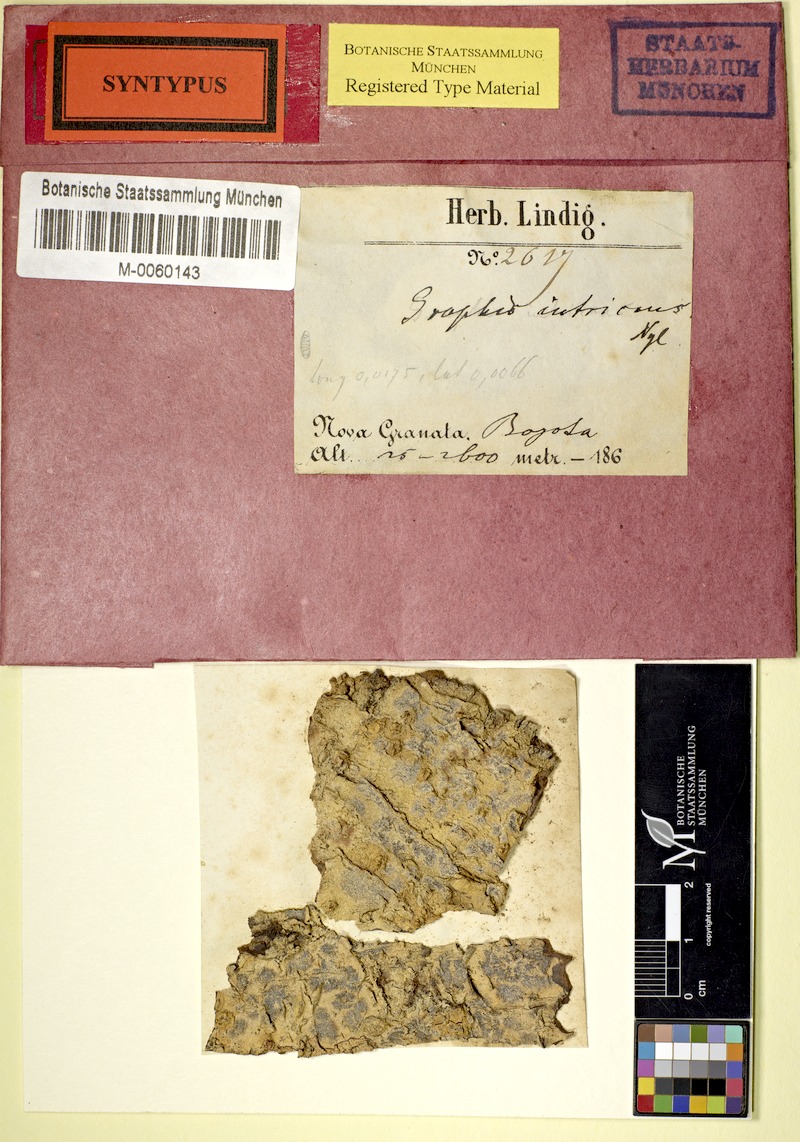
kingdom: Fungi
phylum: Ascomycota
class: Lecanoromycetes
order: Ostropales
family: Graphidaceae
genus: Sarcographa
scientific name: Sarcographa intricans
